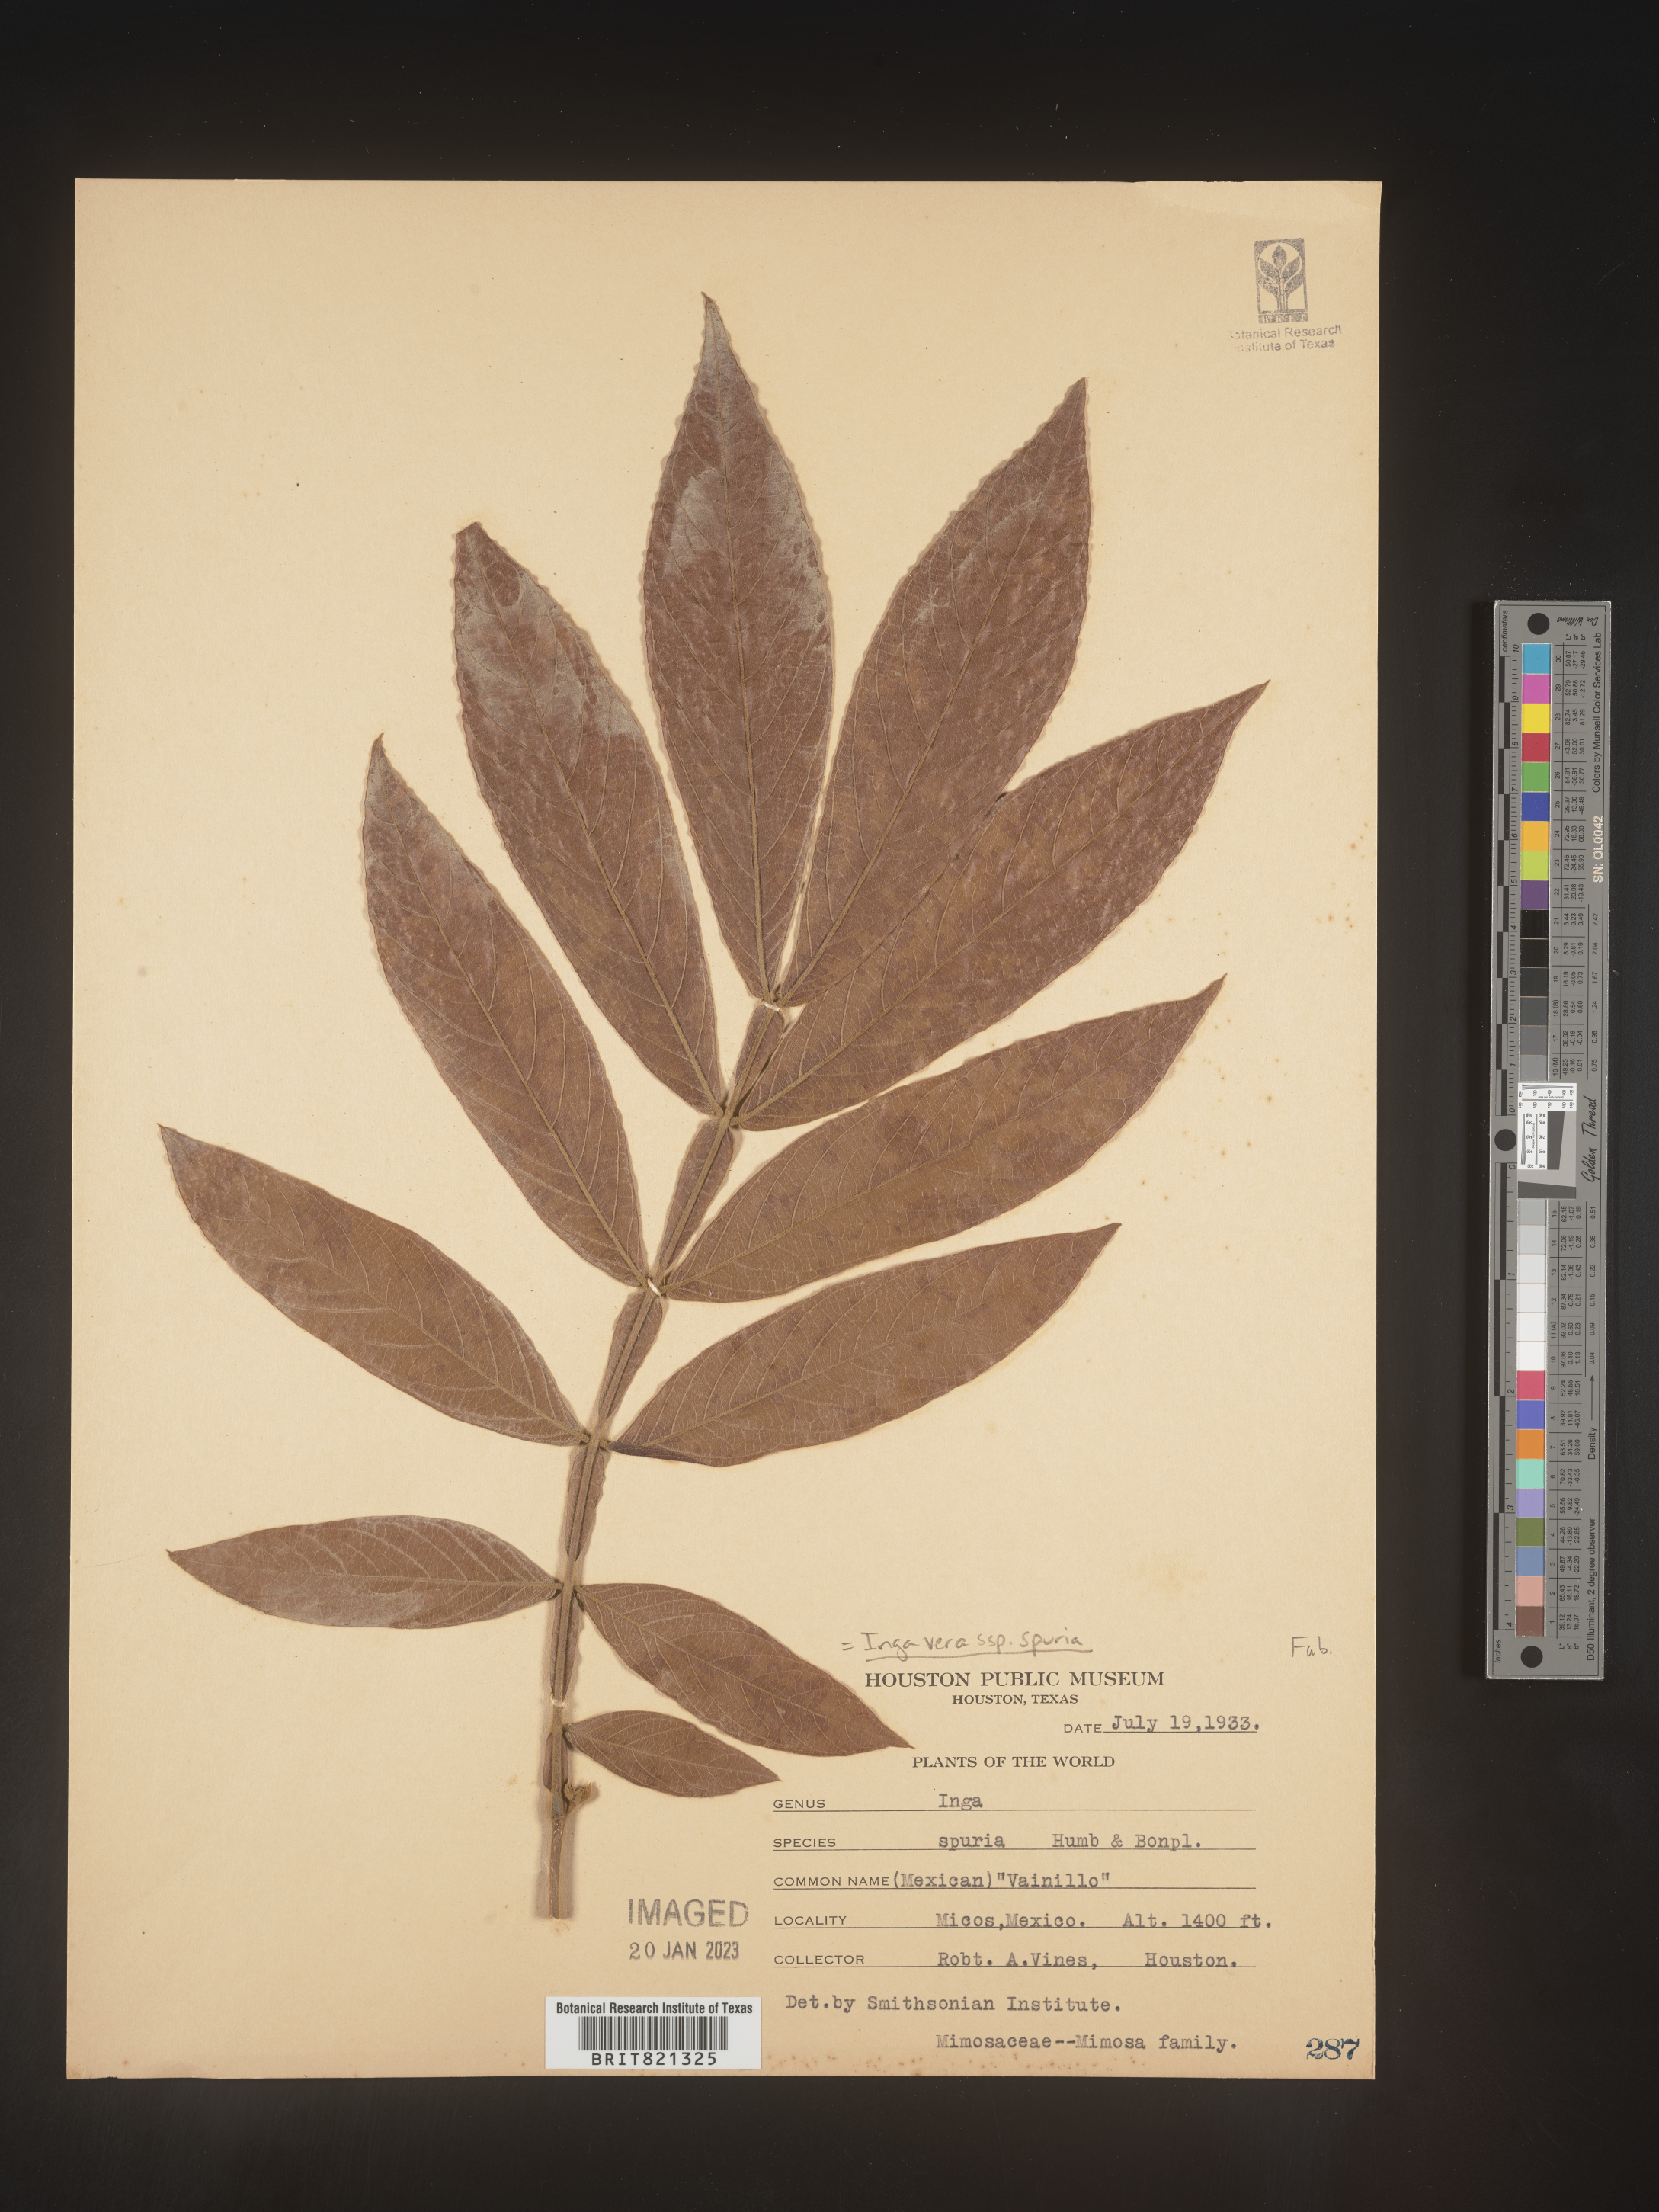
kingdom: Plantae
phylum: Tracheophyta
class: Magnoliopsida
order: Fabales
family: Fabaceae
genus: Inga
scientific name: Inga
